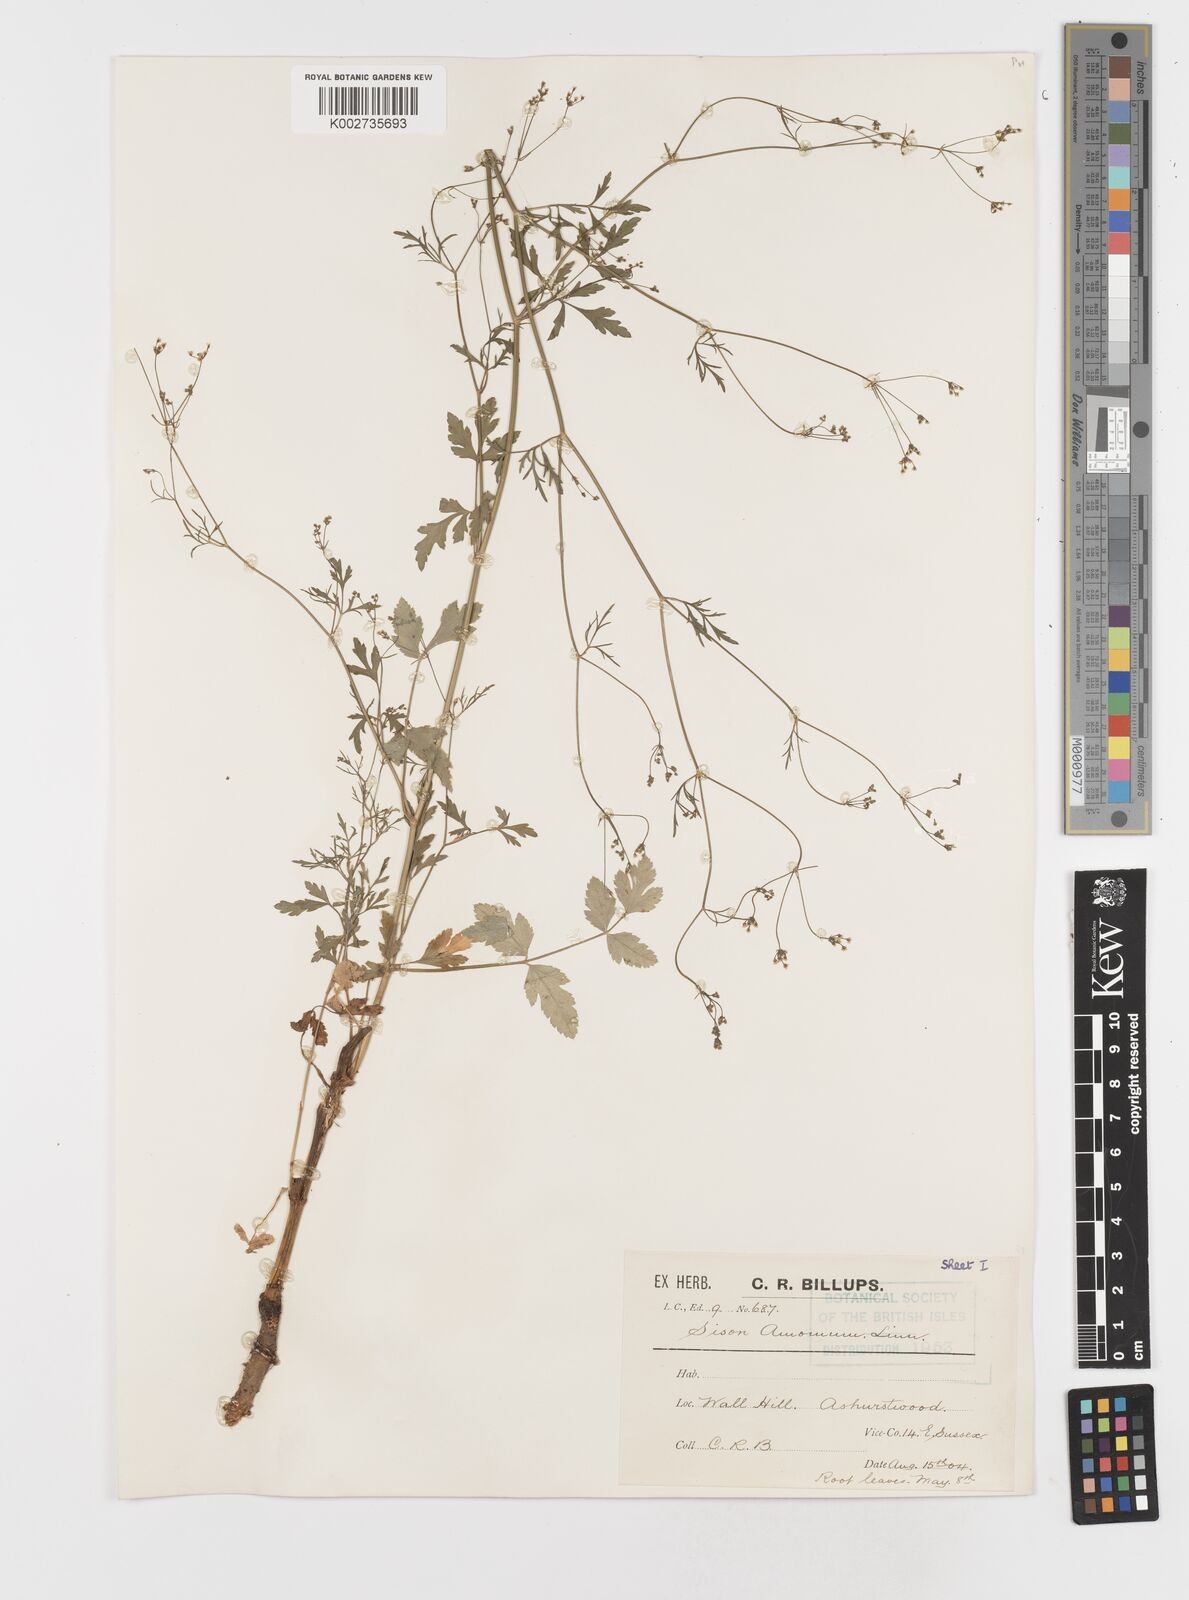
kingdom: Plantae
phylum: Tracheophyta
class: Magnoliopsida
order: Apiales
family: Apiaceae
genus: Sison
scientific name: Sison amomum
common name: Stone-parsley
